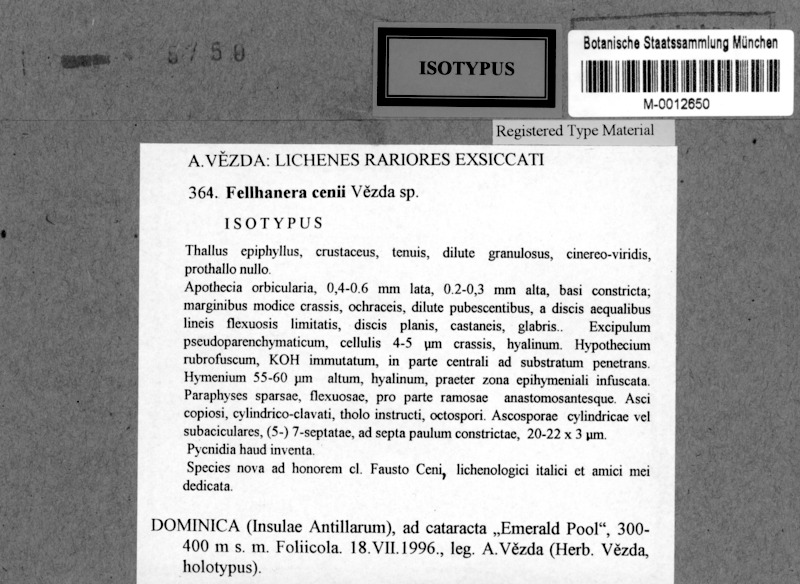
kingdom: Fungi
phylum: Ascomycota
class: Lecanoromycetes
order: Lecanorales
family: Byssolomataceae
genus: Fellhanera
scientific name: Fellhanera
